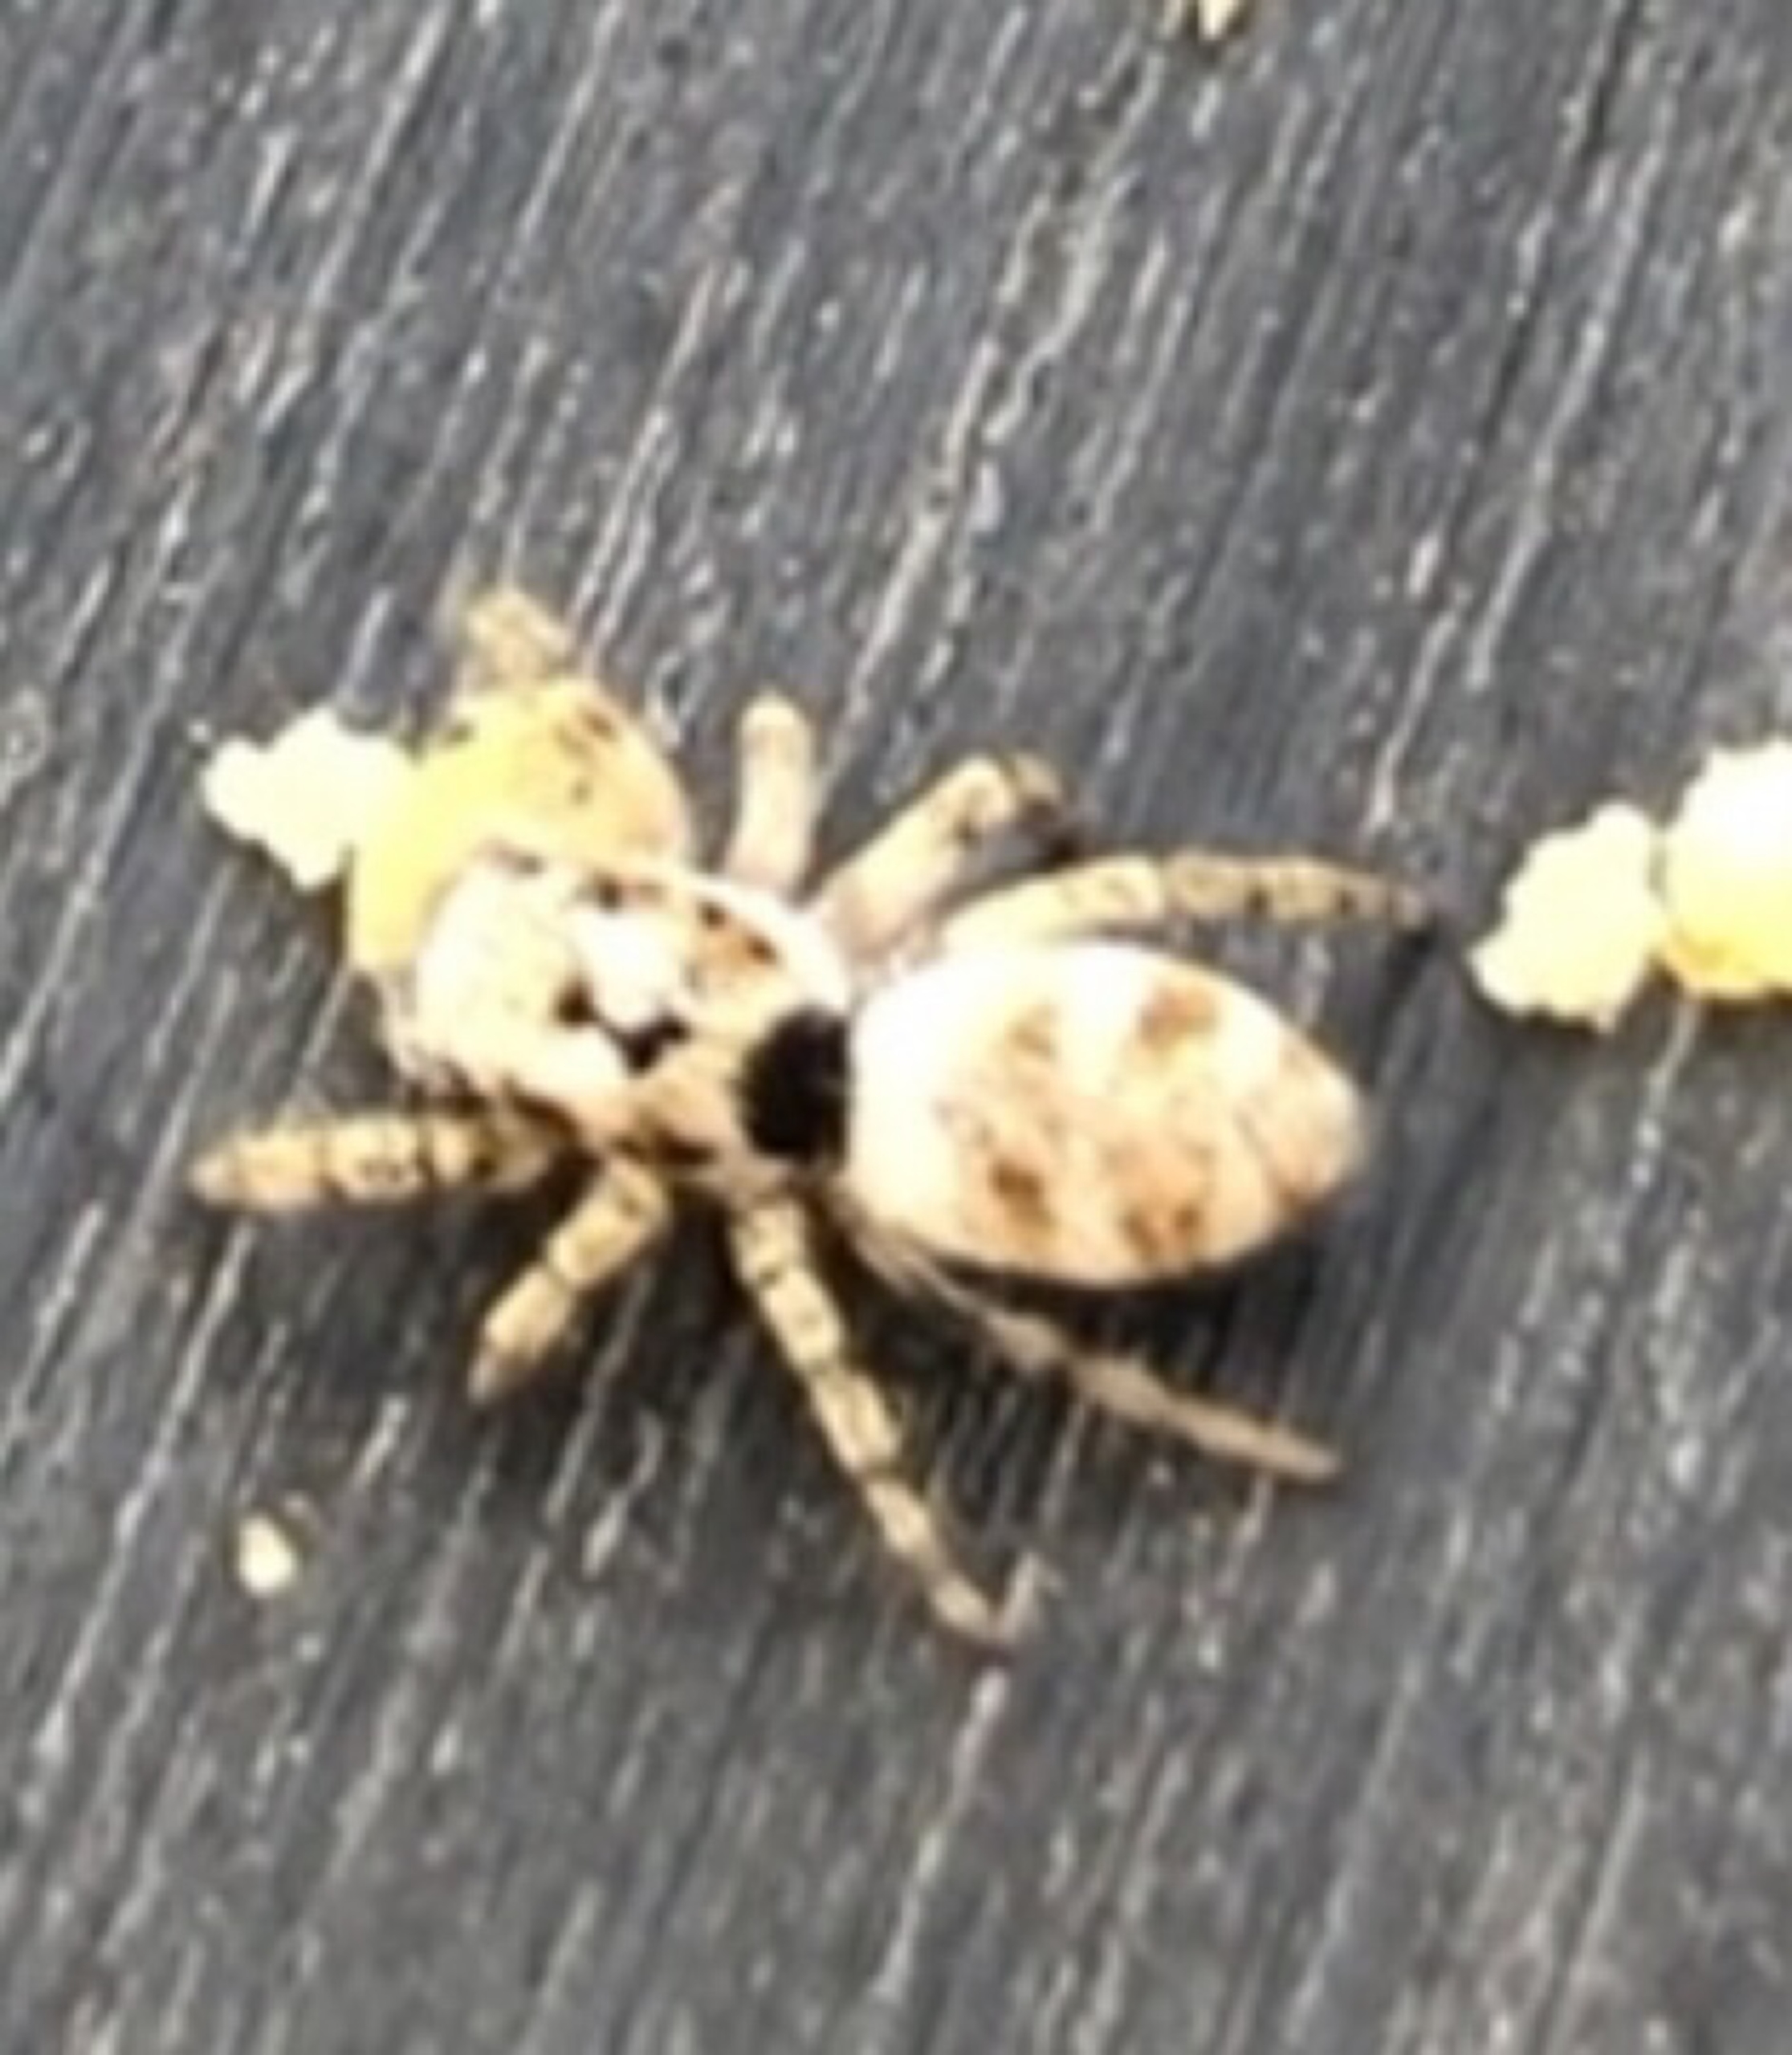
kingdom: Animalia
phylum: Arthropoda
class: Arachnida
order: Araneae
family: Salticidae
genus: Salticus
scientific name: Salticus scenicus
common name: Almindelig zebraedderkop
